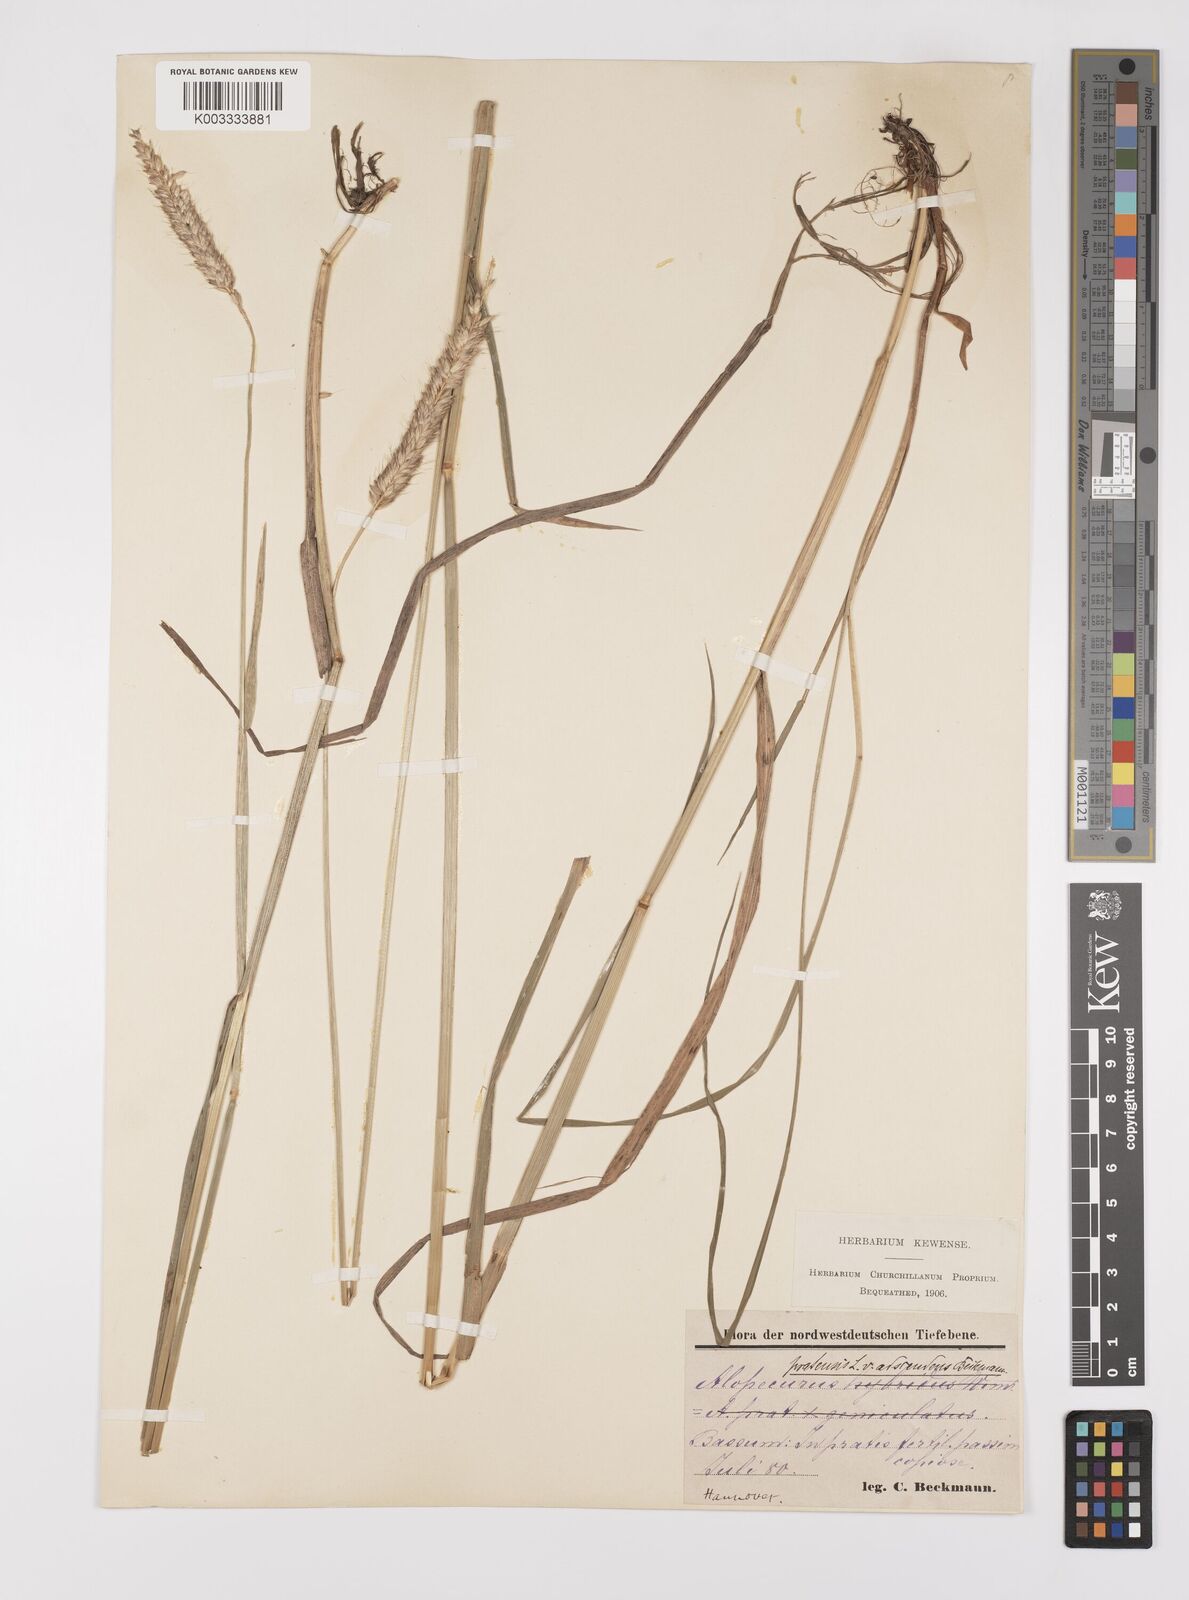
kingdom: Plantae
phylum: Tracheophyta
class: Liliopsida
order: Poales
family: Poaceae
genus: Alopecurus
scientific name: Alopecurus pratensis
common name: Meadow foxtail
